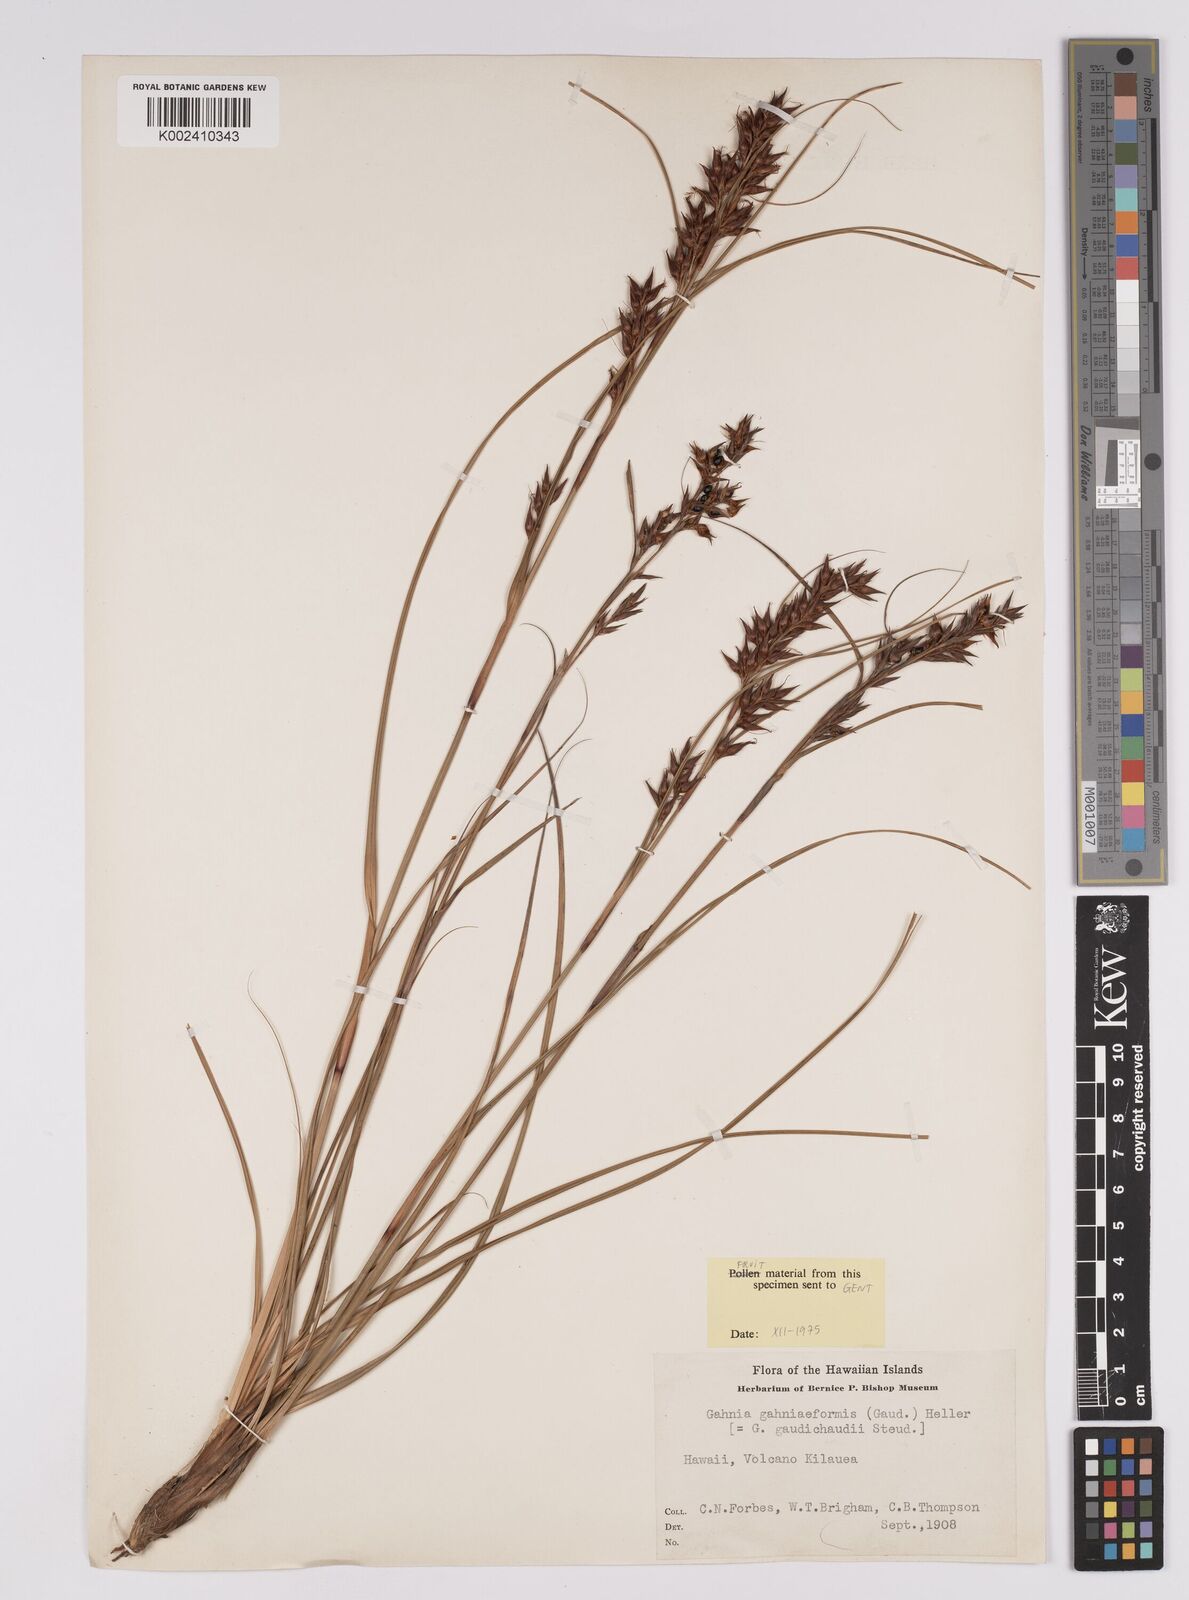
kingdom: Plantae
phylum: Tracheophyta
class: Liliopsida
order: Poales
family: Cyperaceae
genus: Morelotia
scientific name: Morelotia gahniiformis
